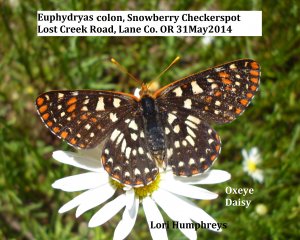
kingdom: Animalia
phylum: Arthropoda
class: Insecta
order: Lepidoptera
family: Nymphalidae
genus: Occidryas
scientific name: Occidryas colon
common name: Snowberry Checkerspot
